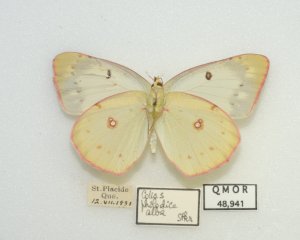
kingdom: Animalia
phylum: Arthropoda
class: Insecta
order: Lepidoptera
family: Pieridae
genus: Colias
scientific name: Colias philodice
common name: Clouded Sulphur
